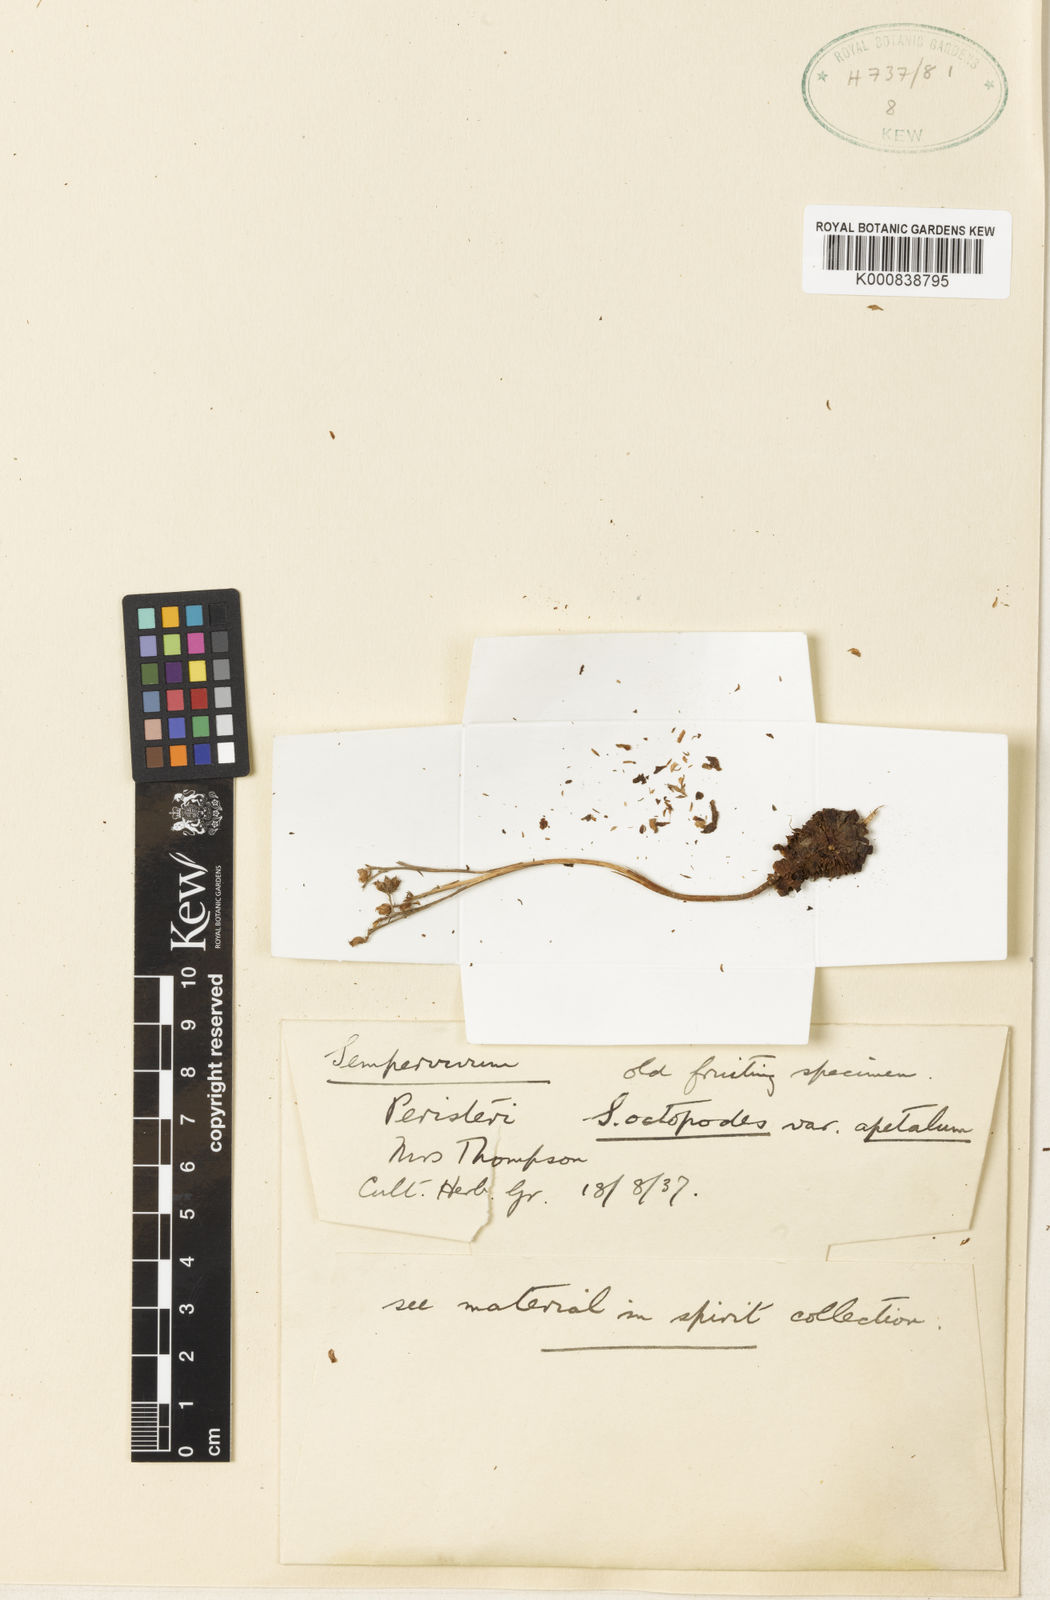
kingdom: Plantae
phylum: Tracheophyta
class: Magnoliopsida
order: Saxifragales
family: Crassulaceae
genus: Sempervivum
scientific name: Sempervivum ciliosum
